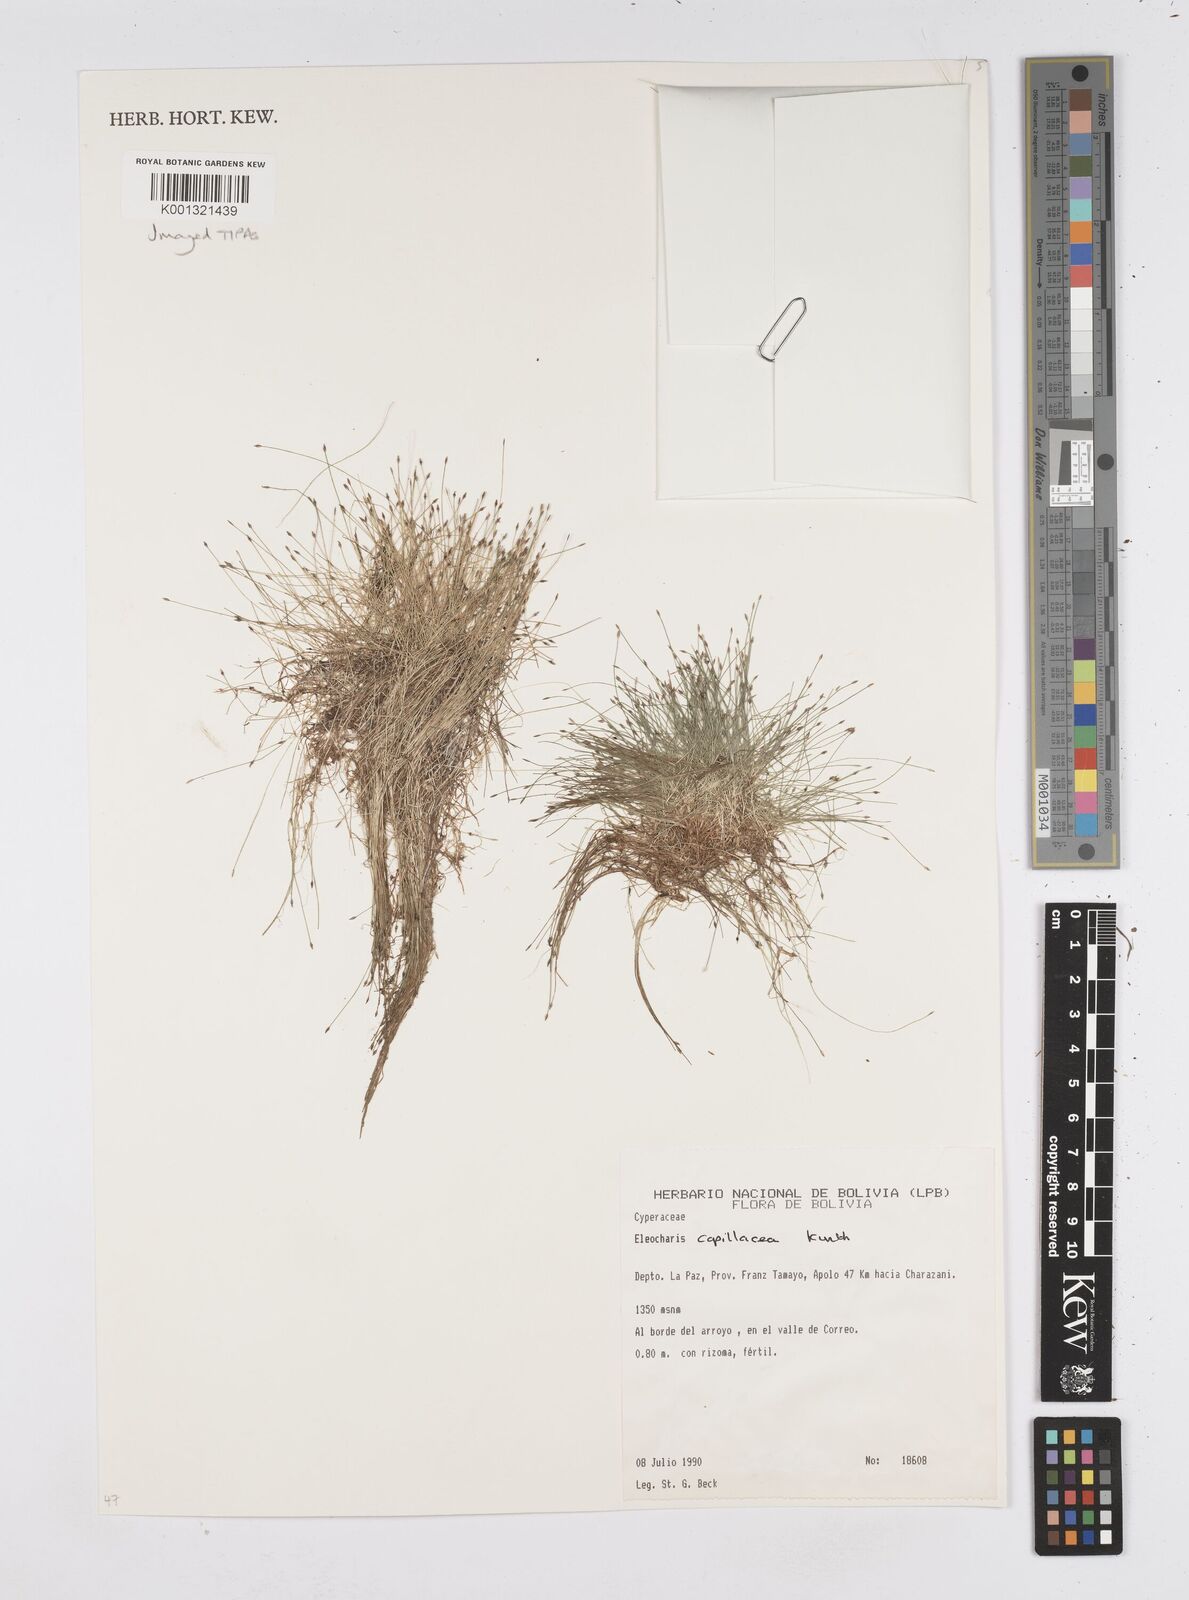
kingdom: Plantae
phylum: Tracheophyta
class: Liliopsida
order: Poales
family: Cyperaceae
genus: Eleocharis
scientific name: Eleocharis capillacea
